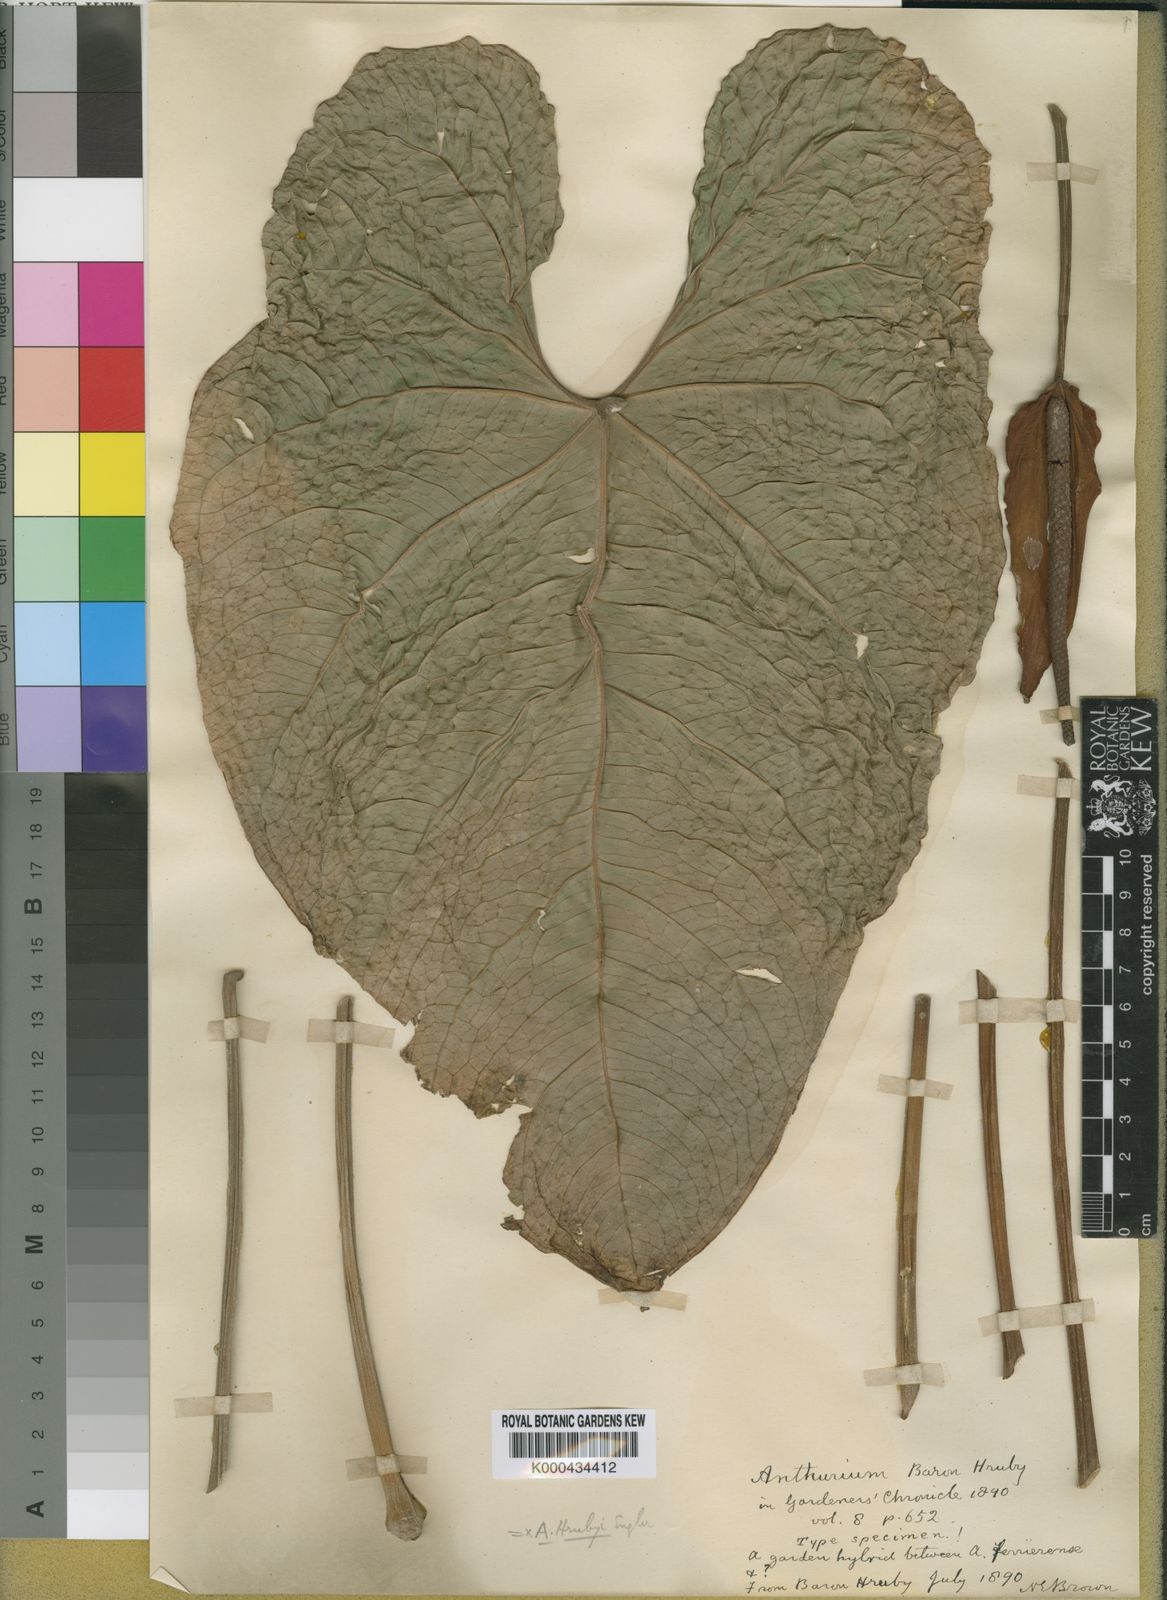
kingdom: Plantae
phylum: Tracheophyta
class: Liliopsida
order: Alismatales
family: Araceae
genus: Anthurium
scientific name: Anthurium
